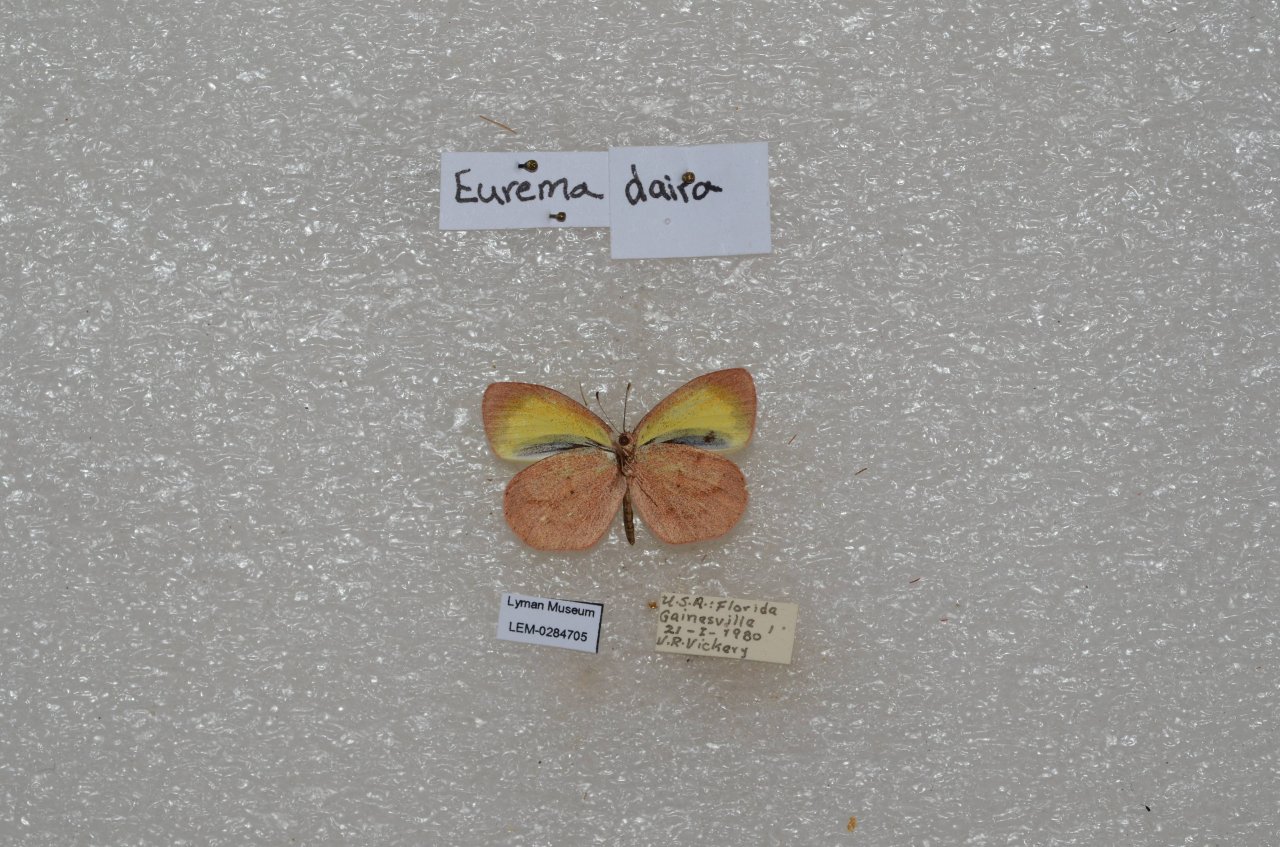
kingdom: Animalia
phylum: Arthropoda
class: Insecta
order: Lepidoptera
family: Pieridae
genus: Eurema
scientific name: Eurema daira
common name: Barred Yellow
